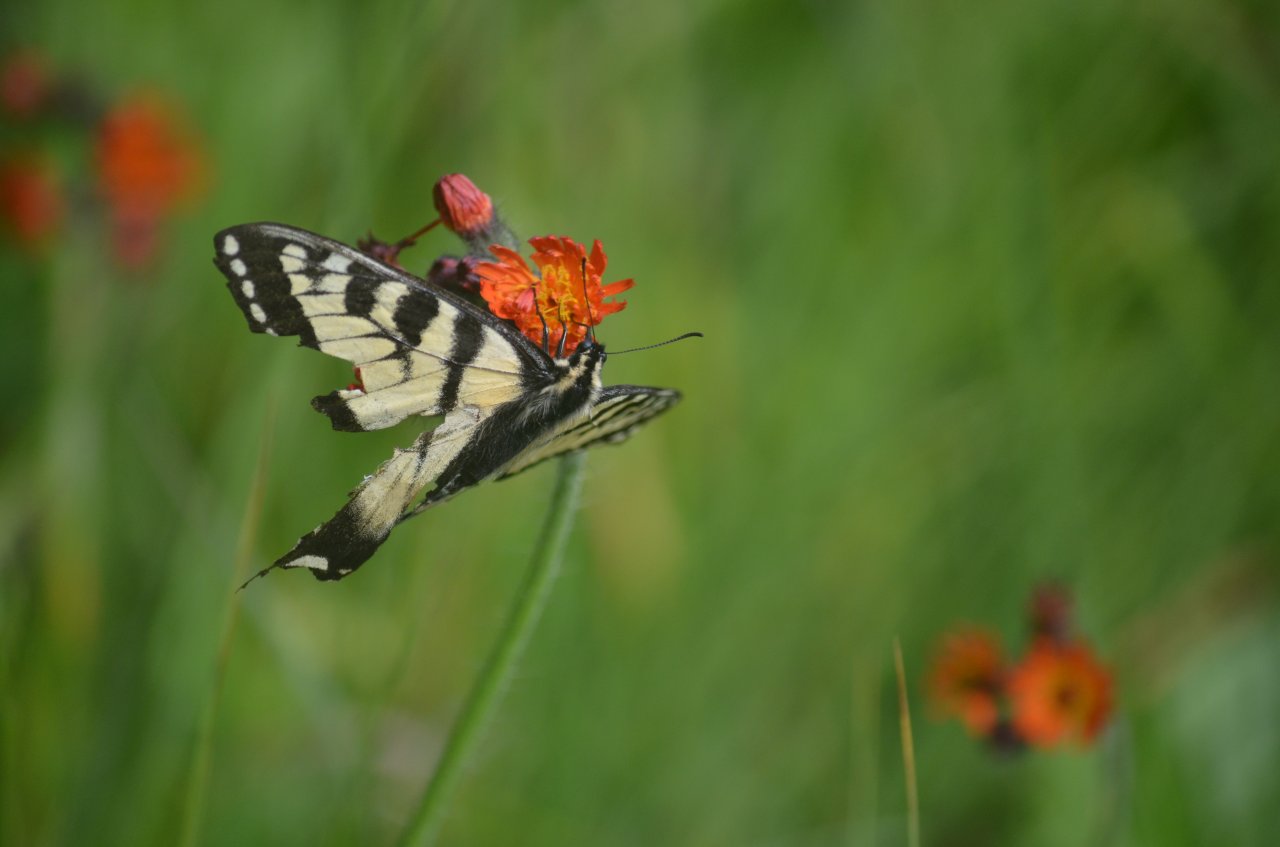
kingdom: Animalia
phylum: Arthropoda
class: Insecta
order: Lepidoptera
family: Papilionidae
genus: Pterourus
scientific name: Pterourus canadensis
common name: Canadian Tiger Swallowtail
